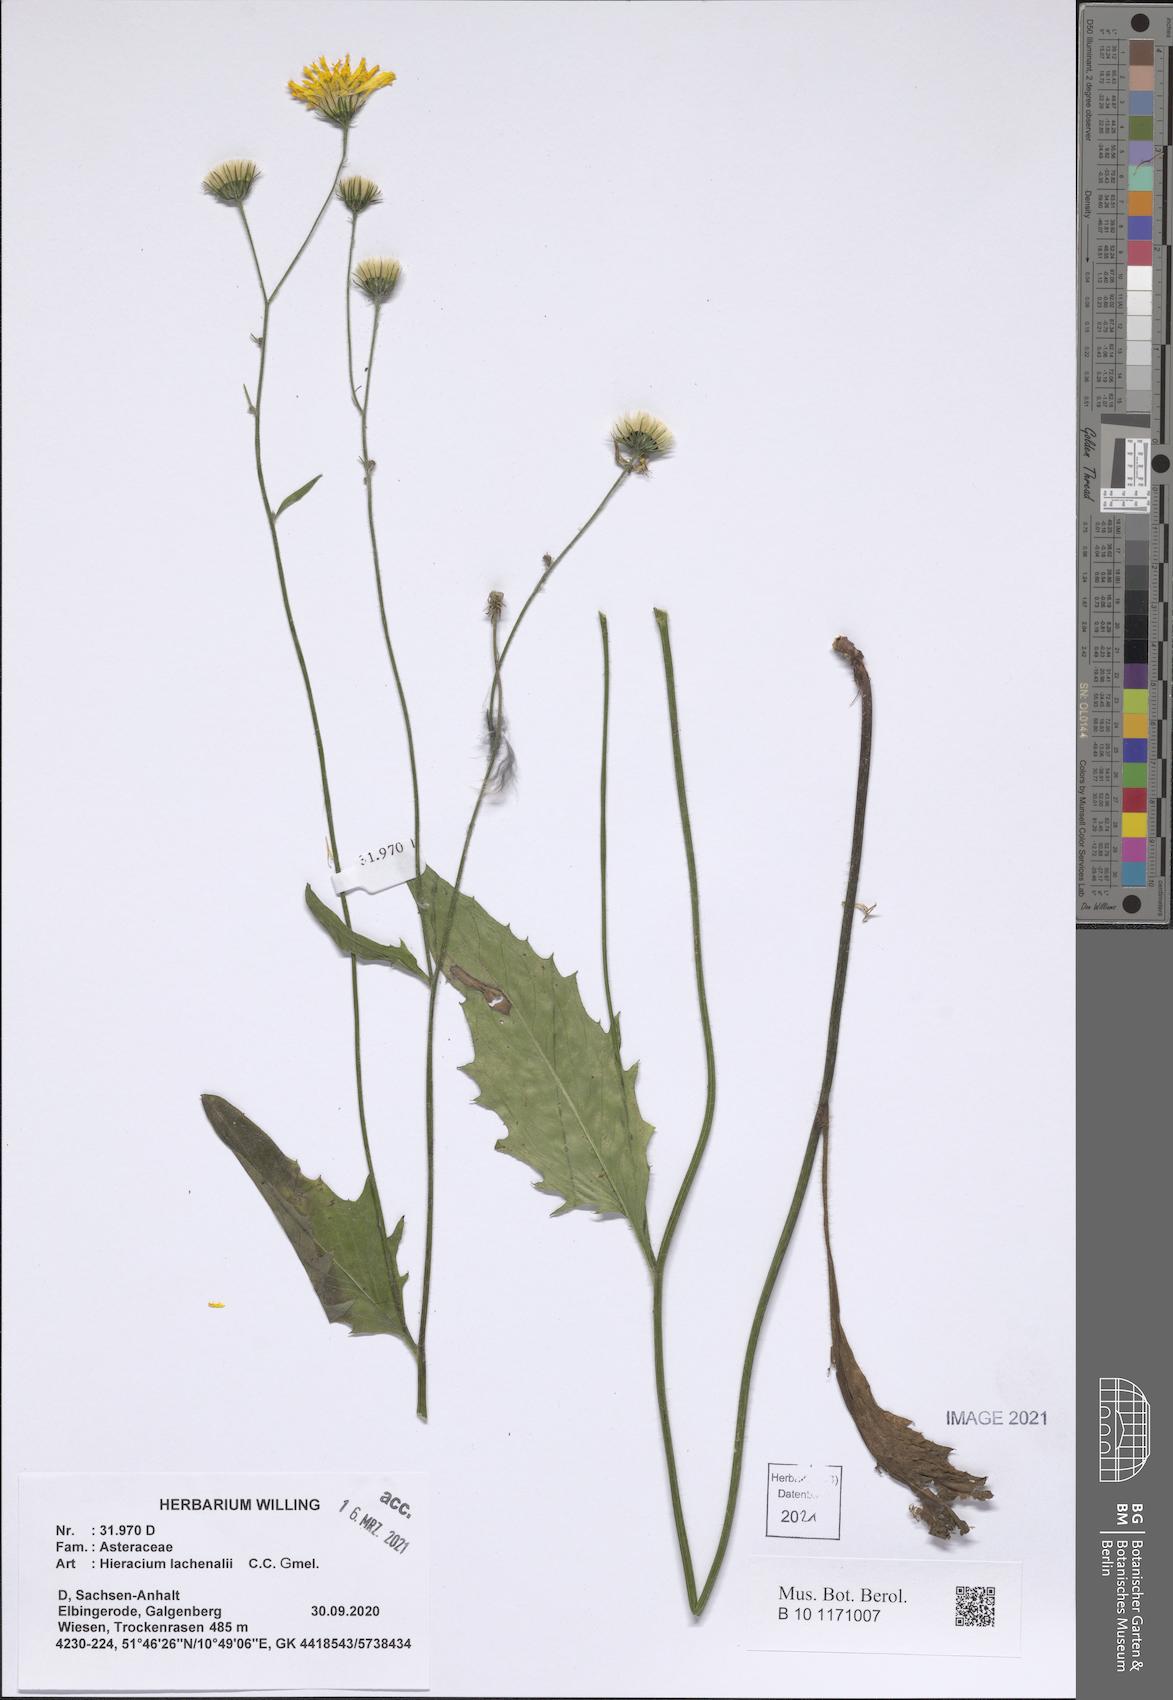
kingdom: Plantae
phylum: Tracheophyta
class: Magnoliopsida
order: Asterales
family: Asteraceae
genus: Hieracium
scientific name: Hieracium lachenalii
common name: Common hawkweed
